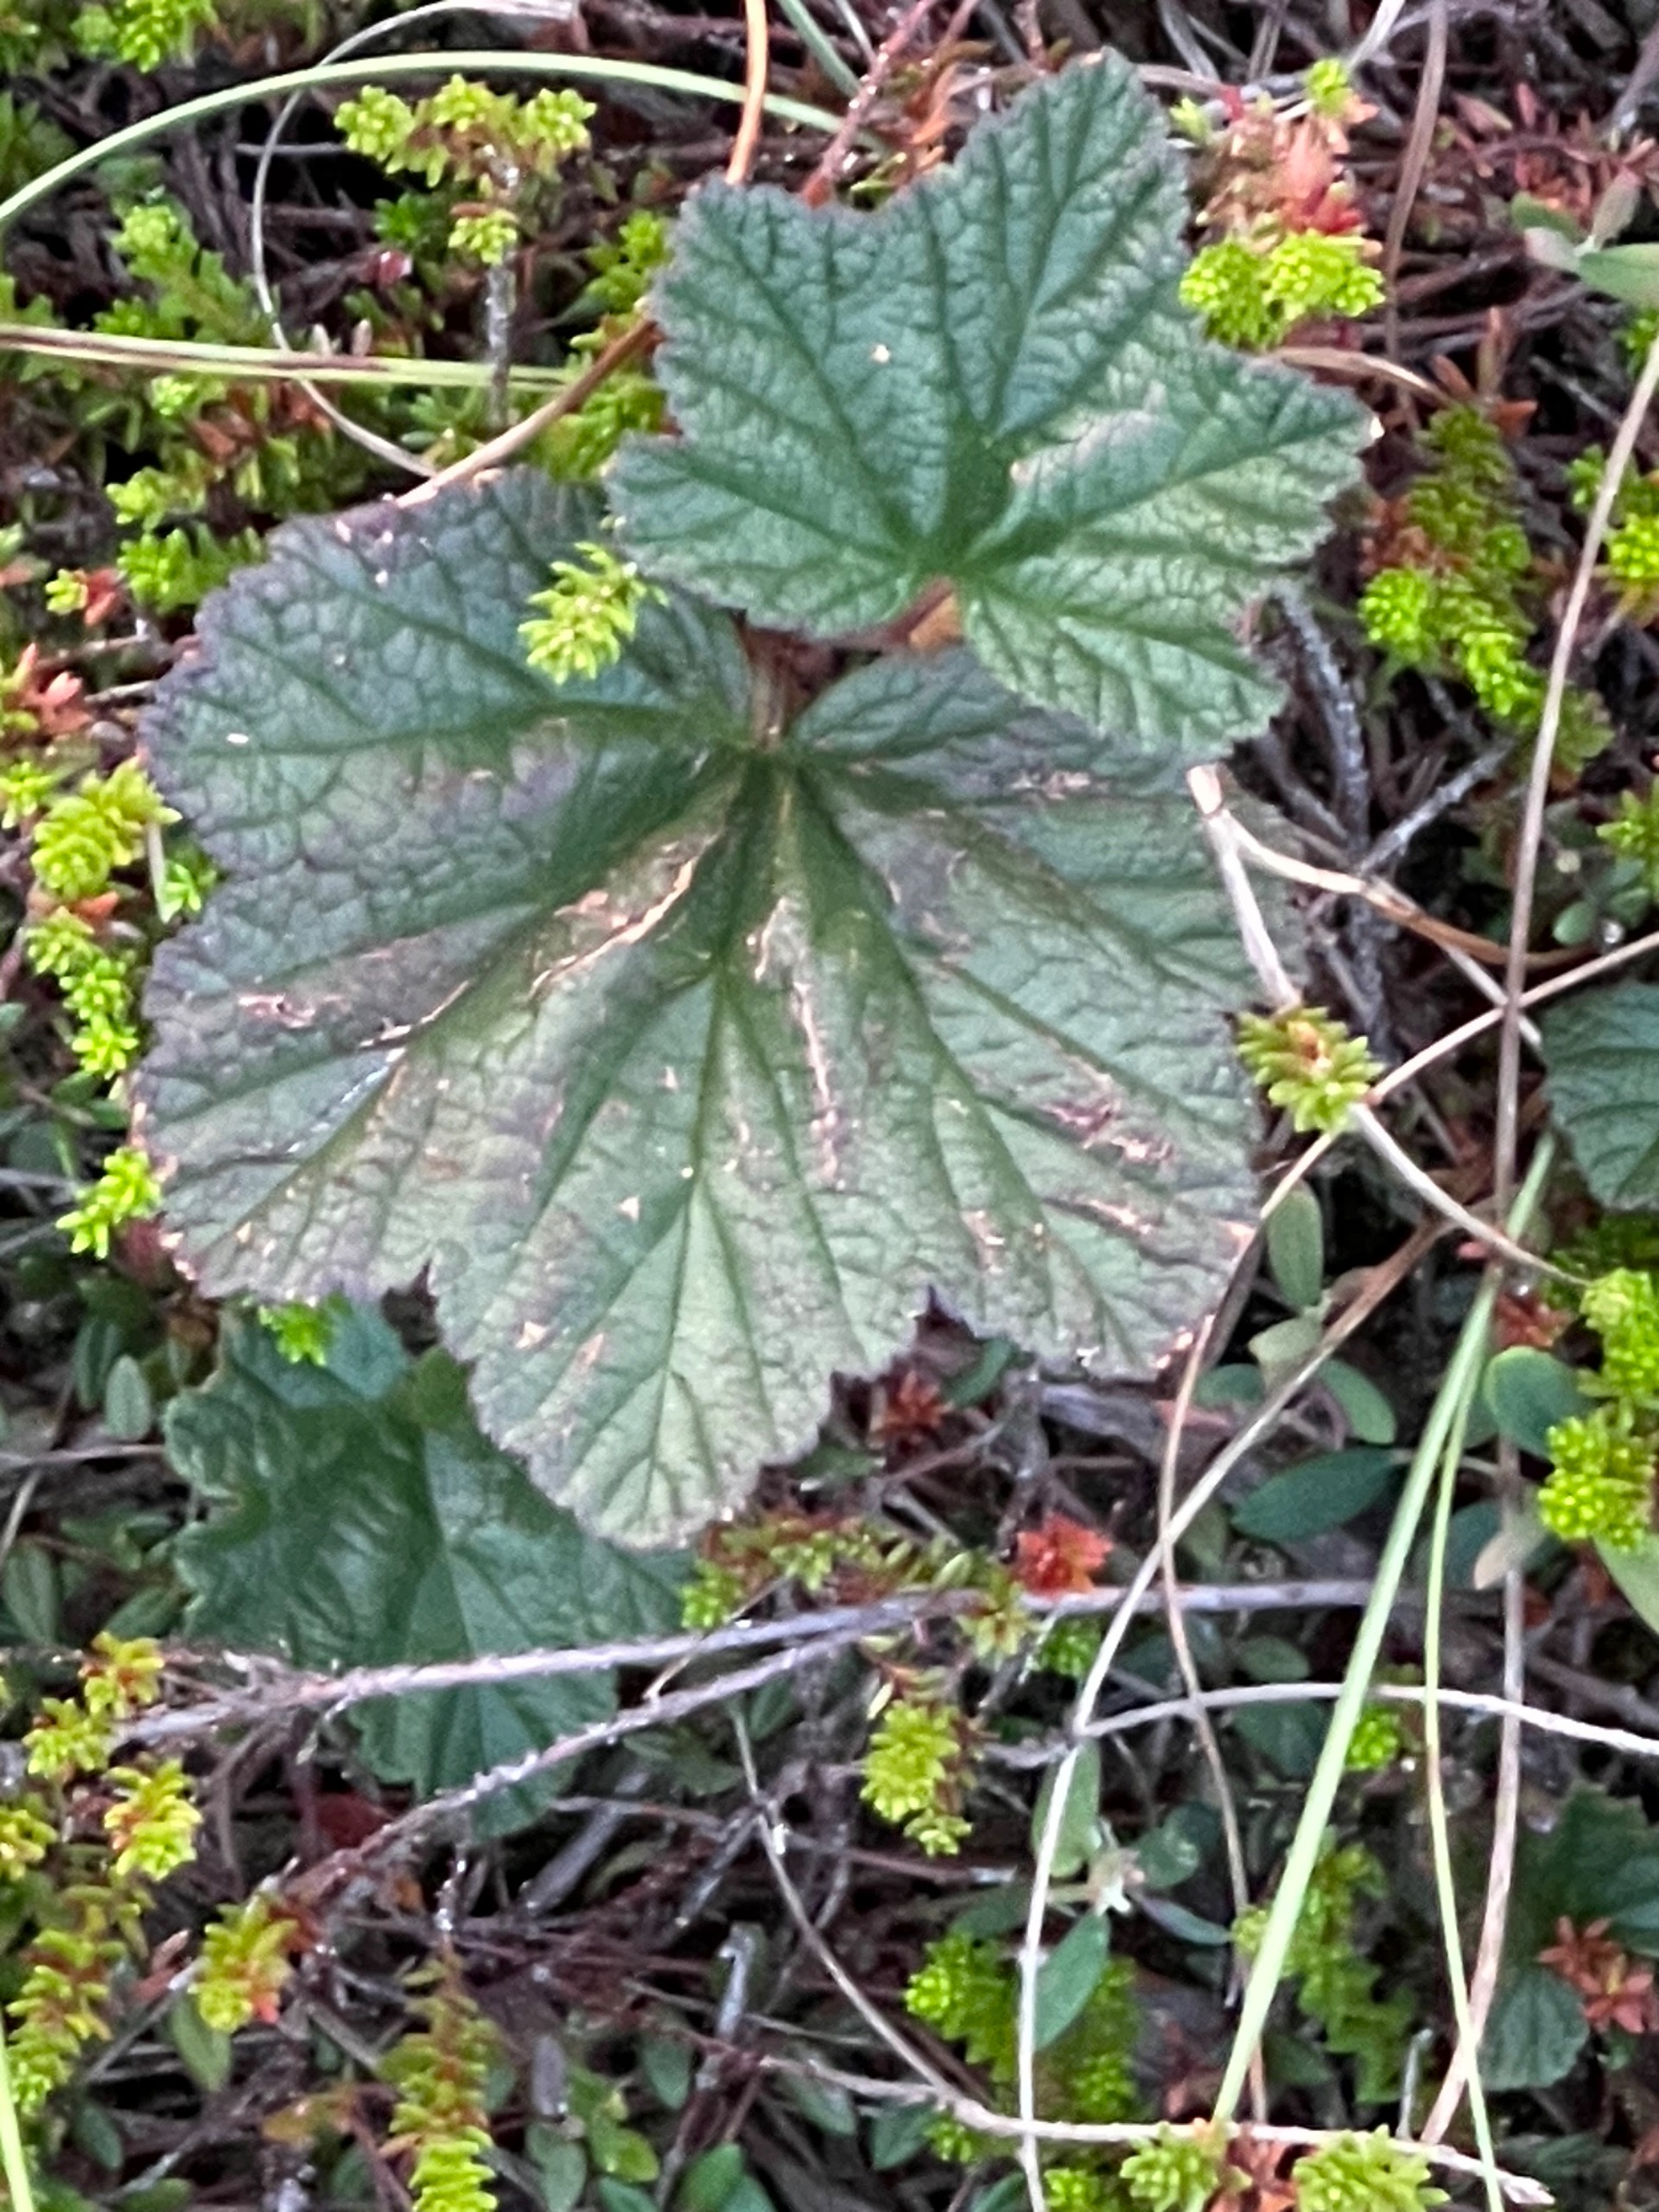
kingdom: Plantae
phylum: Tracheophyta
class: Magnoliopsida
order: Rosales
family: Rosaceae
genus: Rubus
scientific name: Rubus chamaemorus
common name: Multebær
